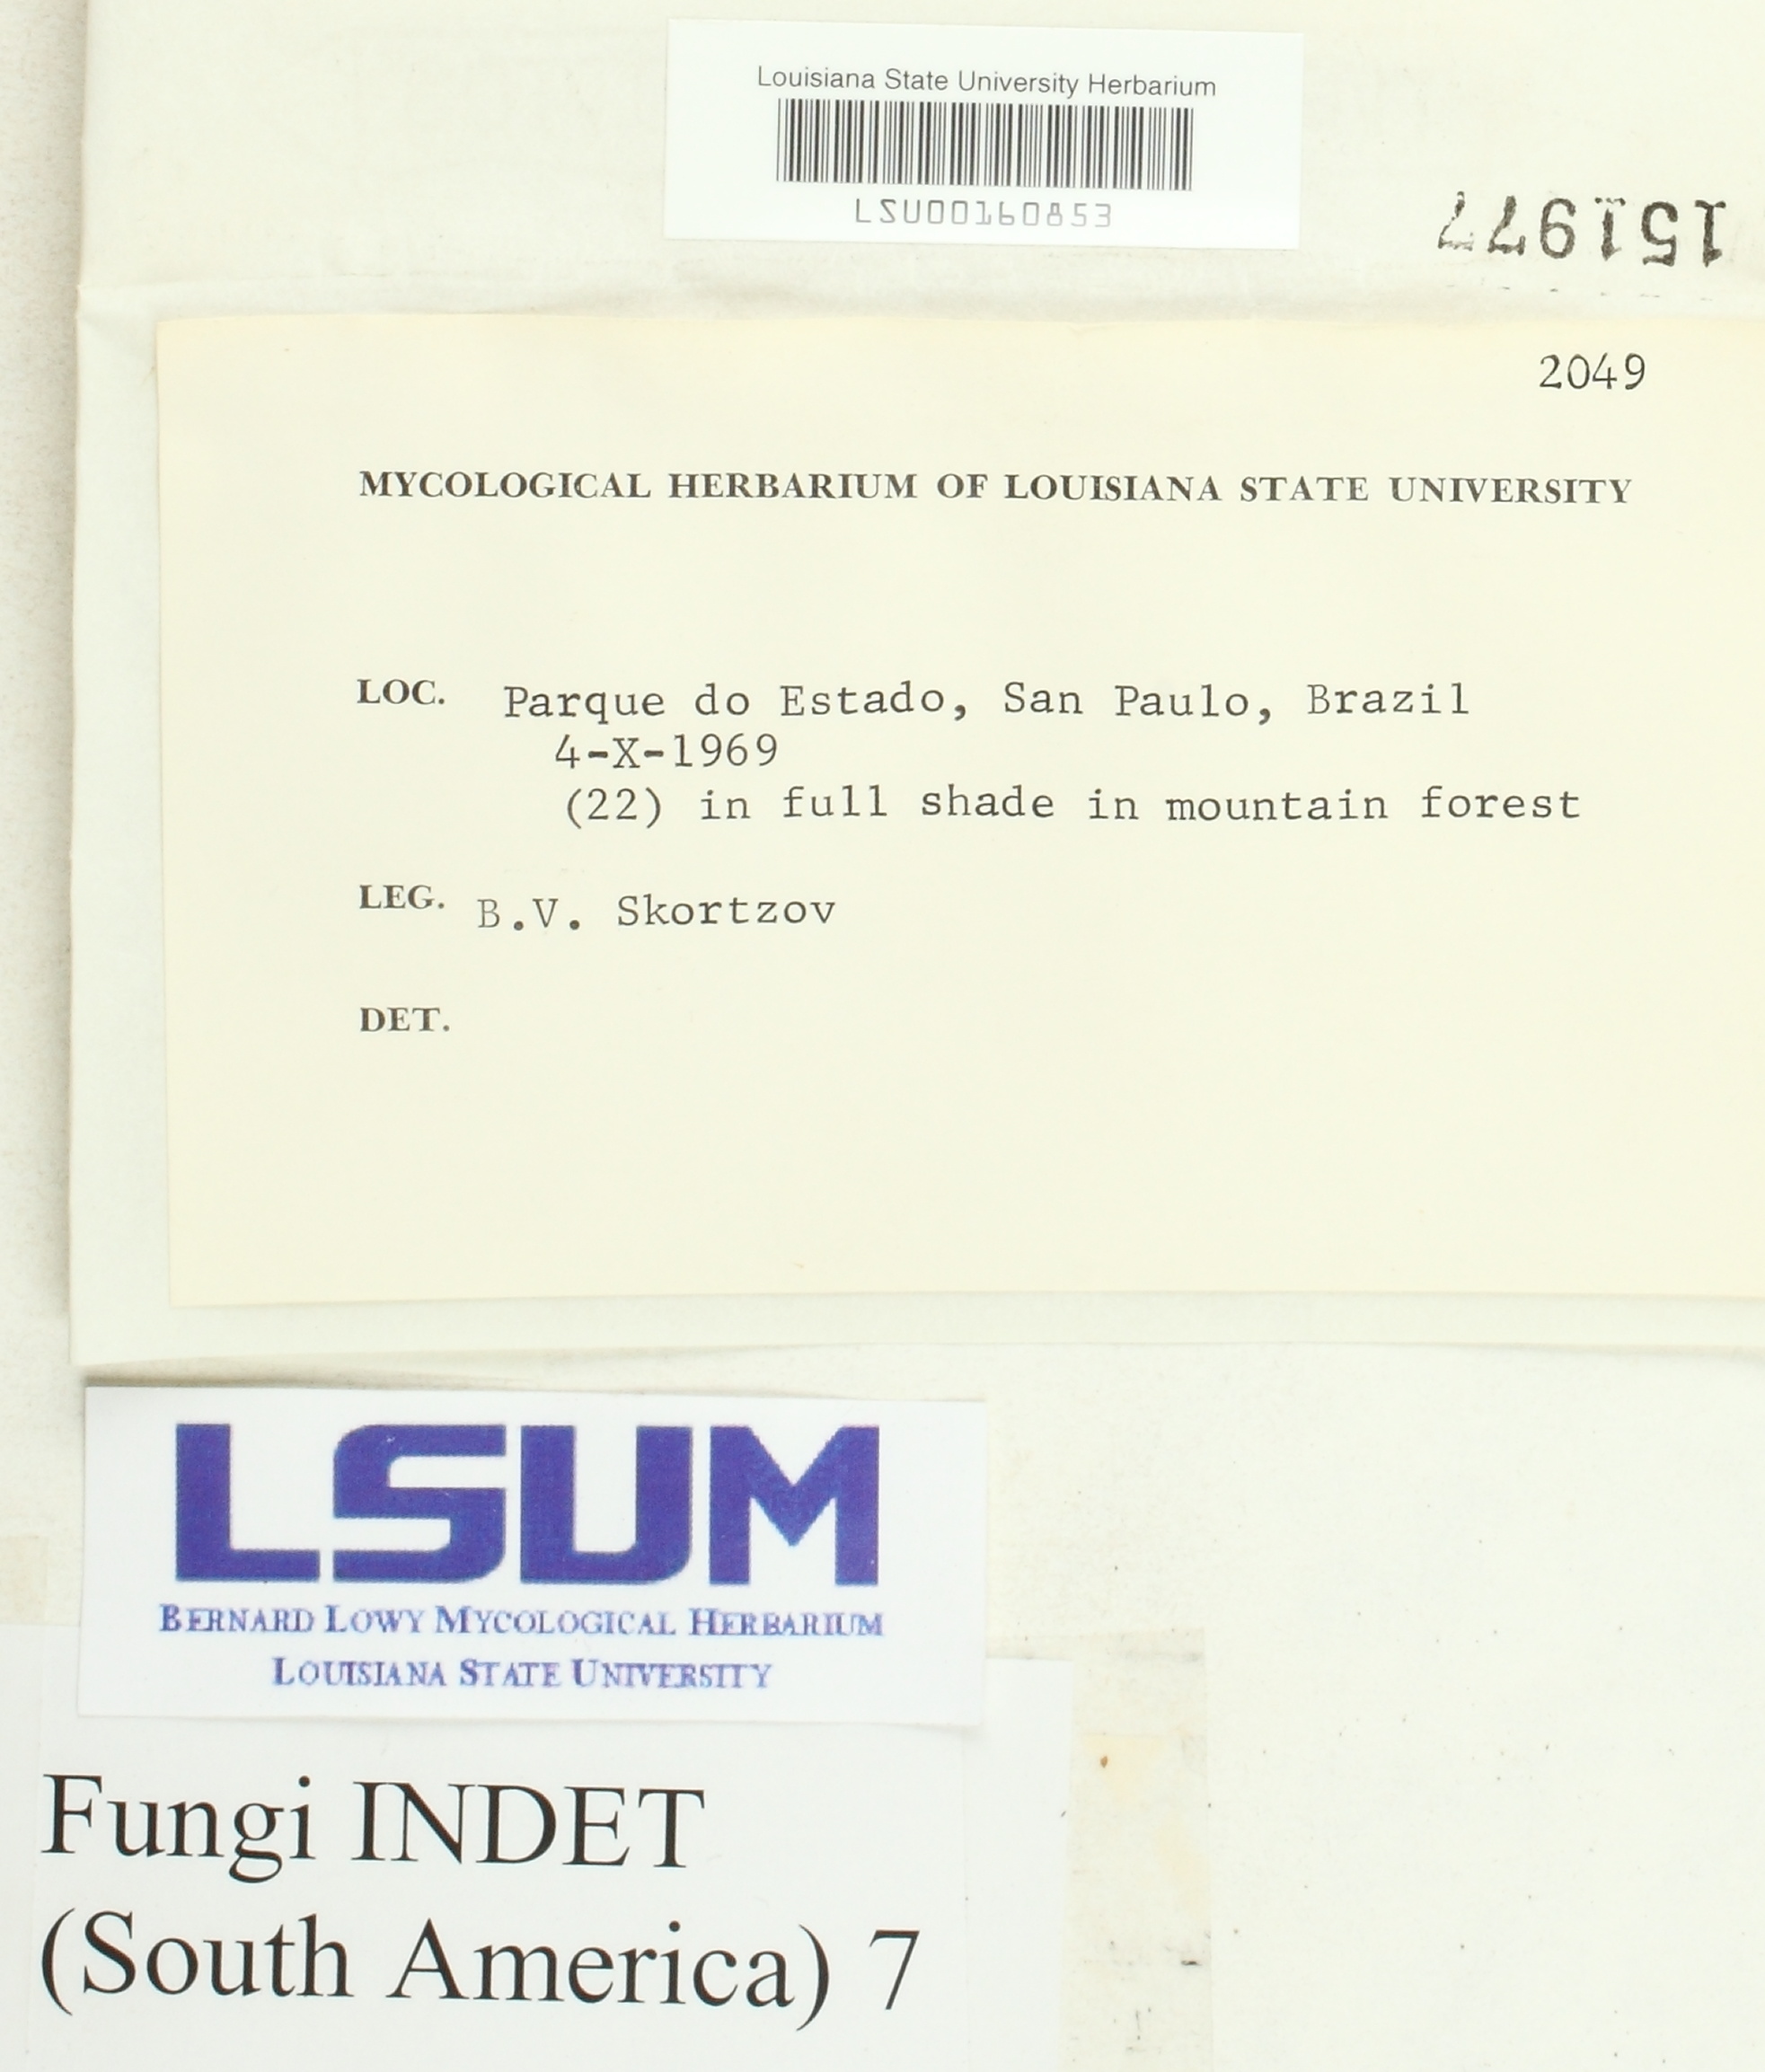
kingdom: Fungi
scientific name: Fungi
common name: Fungi
